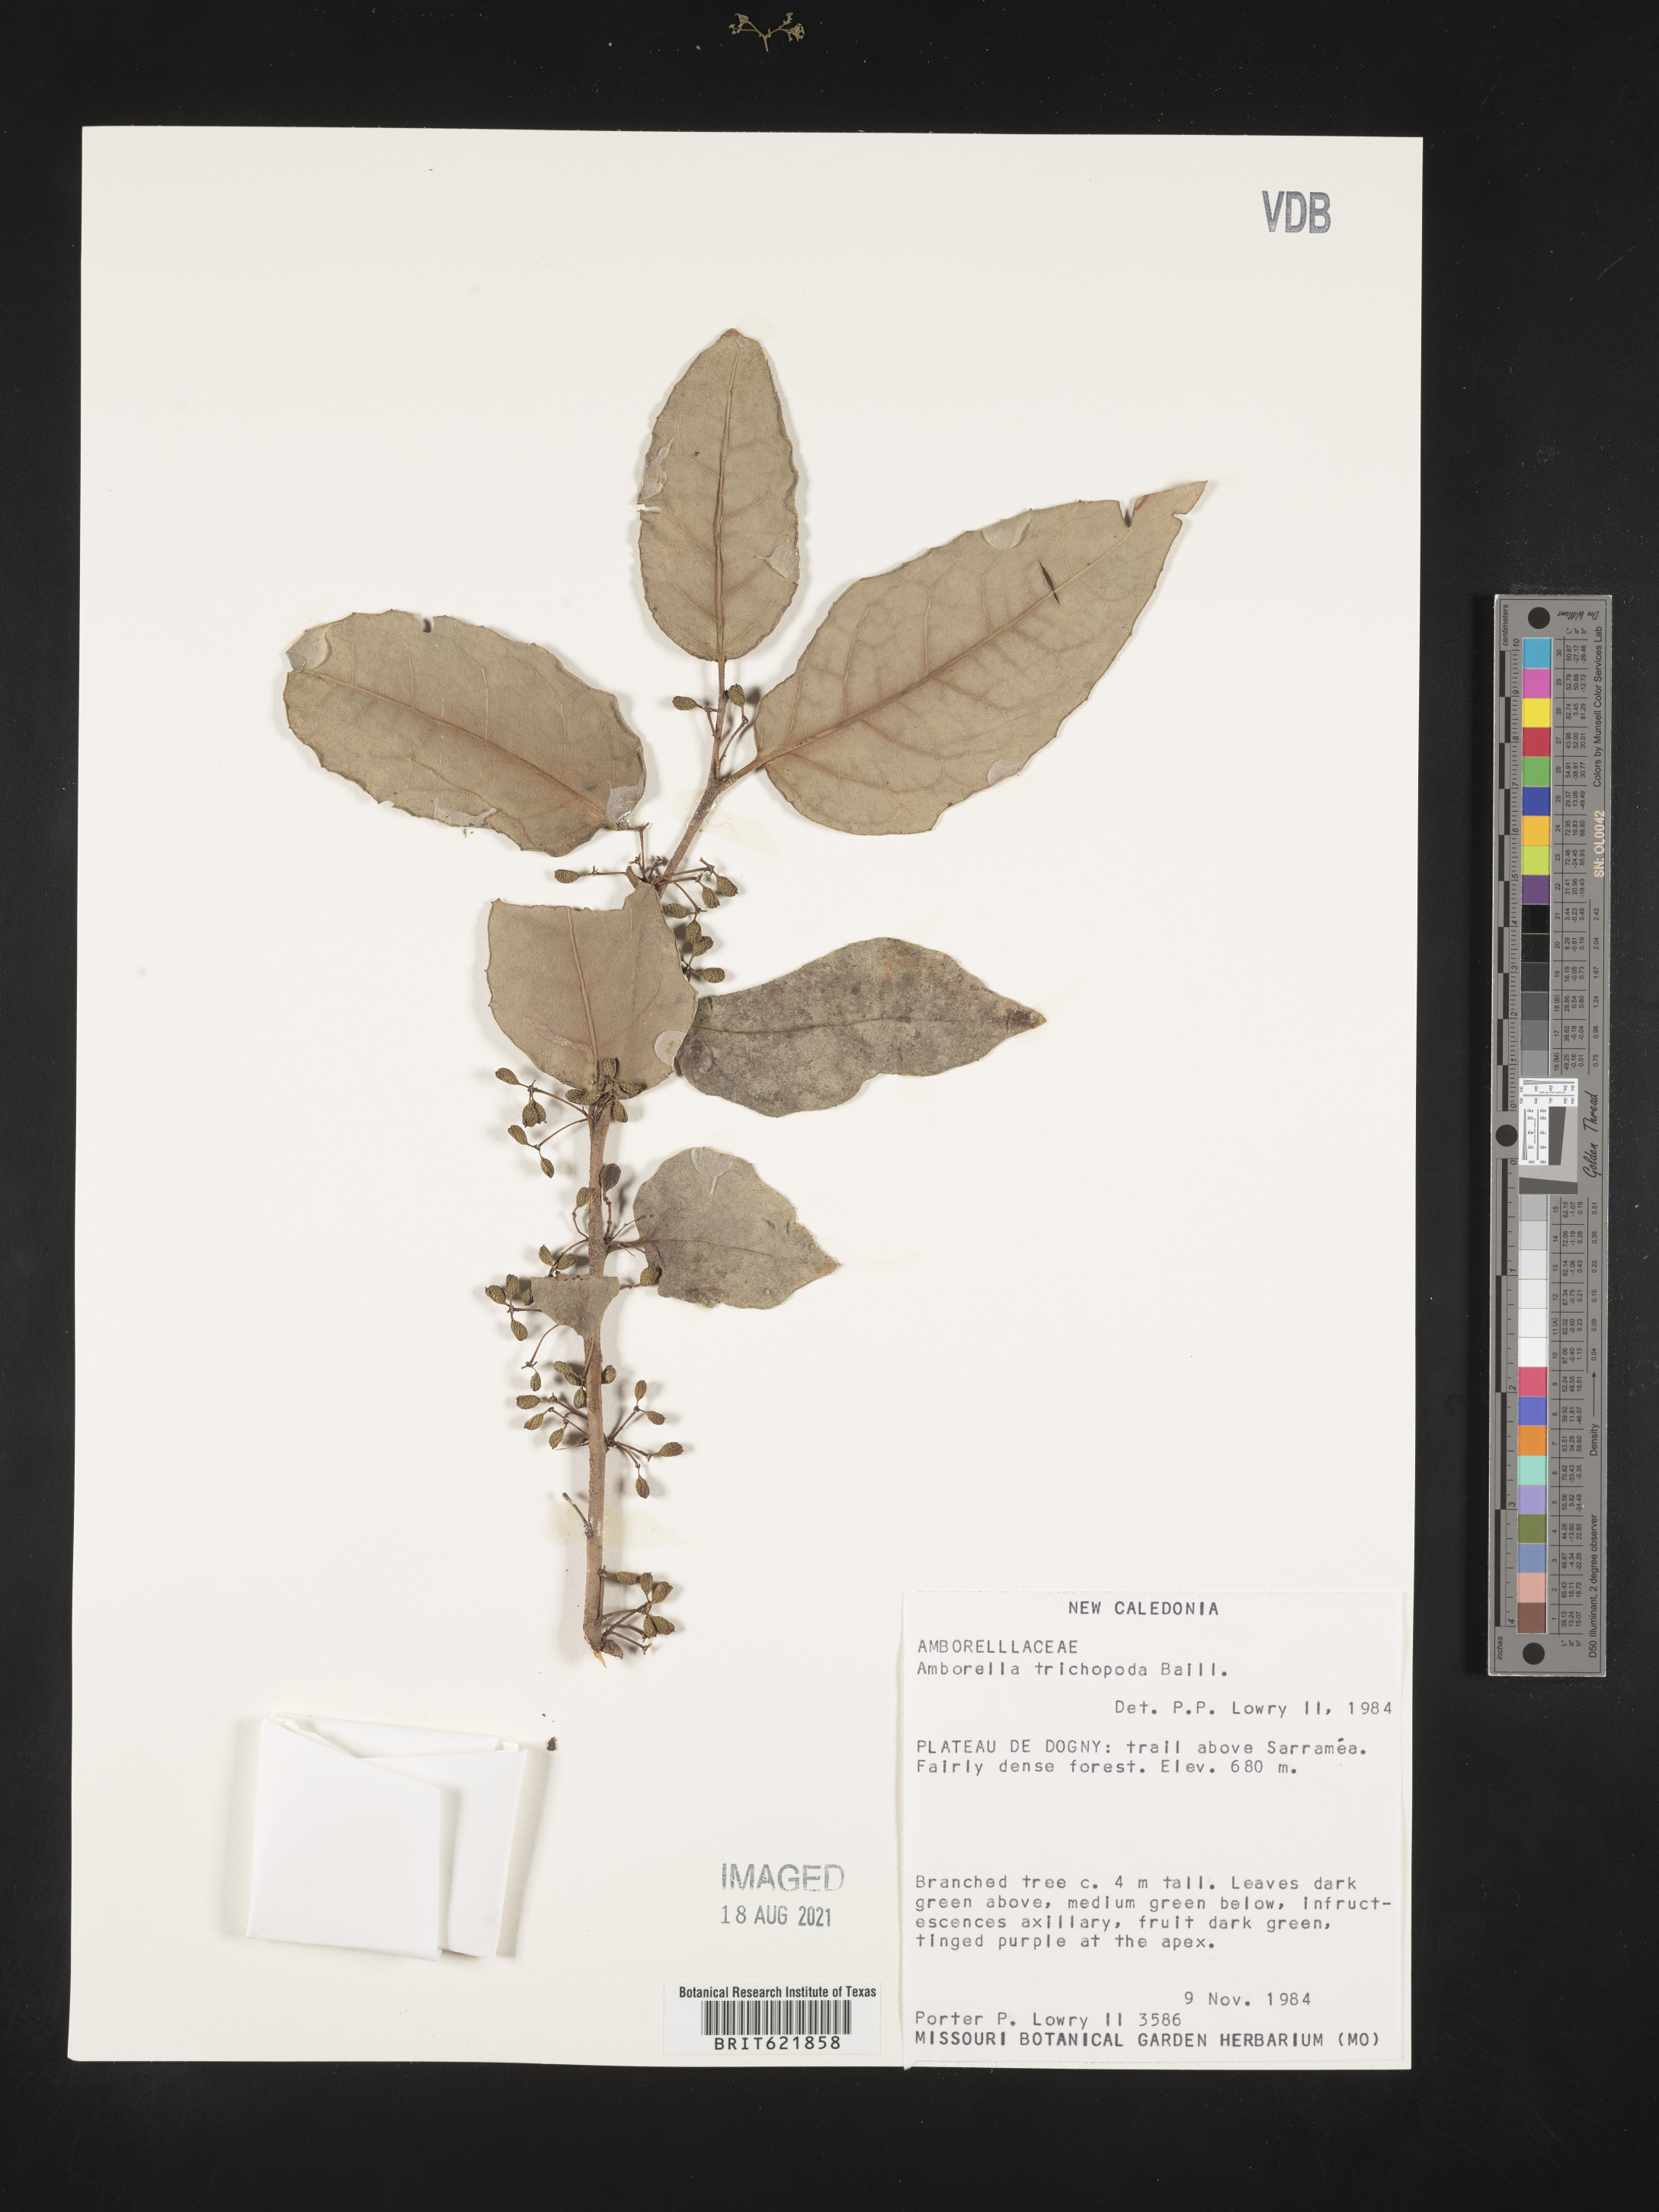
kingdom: Plantae
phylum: Tracheophyta
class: Magnoliopsida
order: Amborellales
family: Amborellaceae
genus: Amborella
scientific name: Amborella trichopoda
